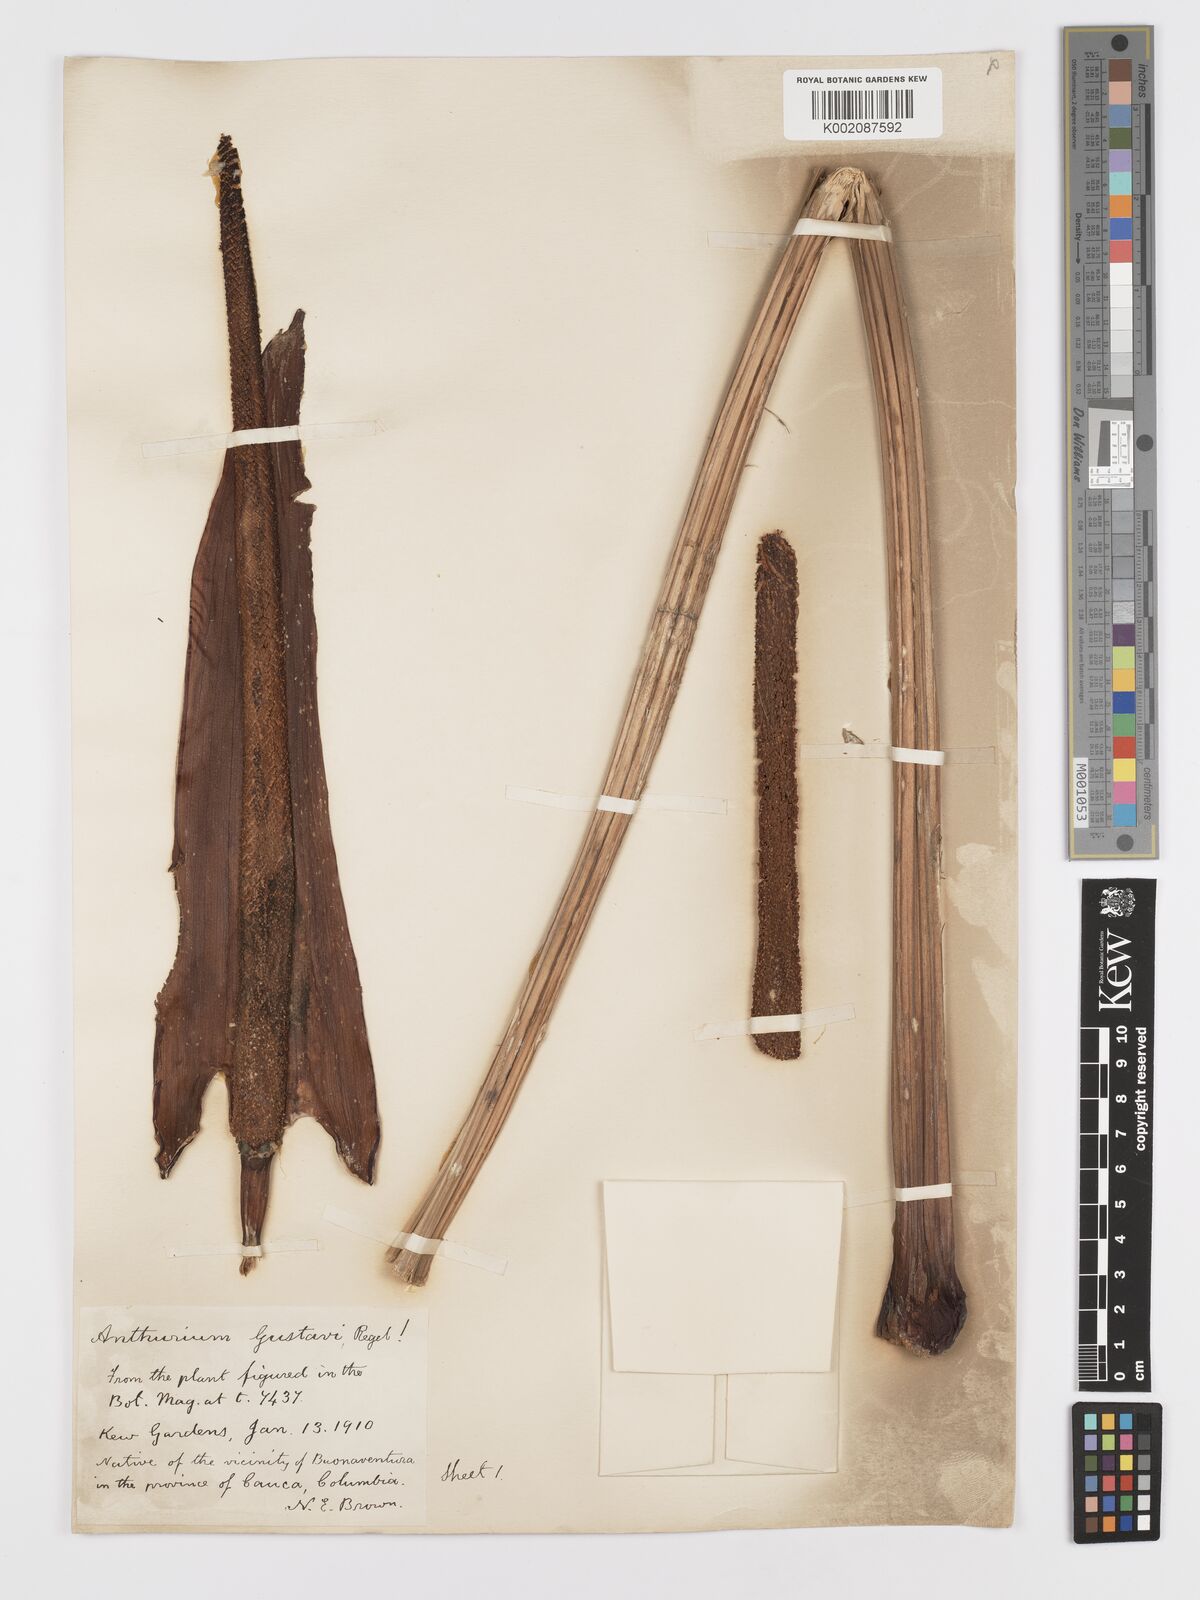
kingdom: Plantae
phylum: Tracheophyta
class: Liliopsida
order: Alismatales
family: Araceae
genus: Anthurium
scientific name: Anthurium gustavii
